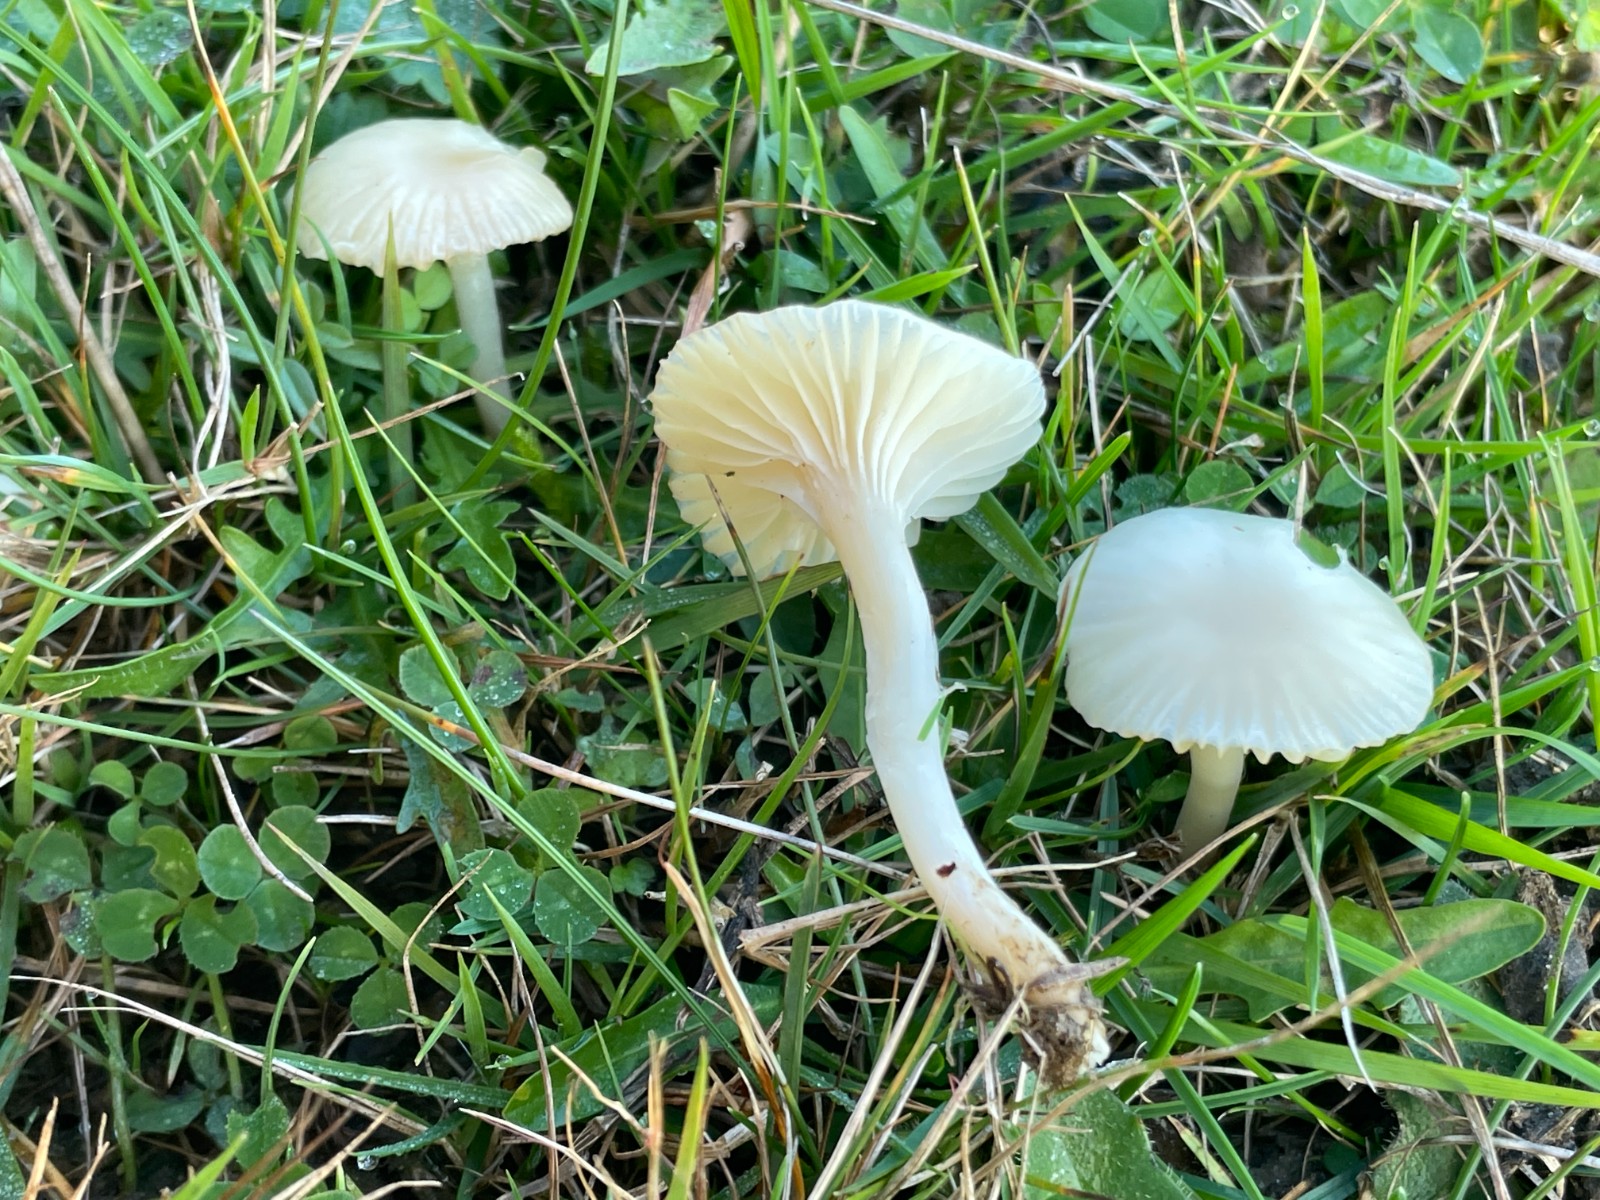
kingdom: Fungi
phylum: Basidiomycota
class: Agaricomycetes
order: Agaricales
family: Hygrophoraceae
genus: Cuphophyllus
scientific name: Cuphophyllus virgineus
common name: snehvid vokshat
